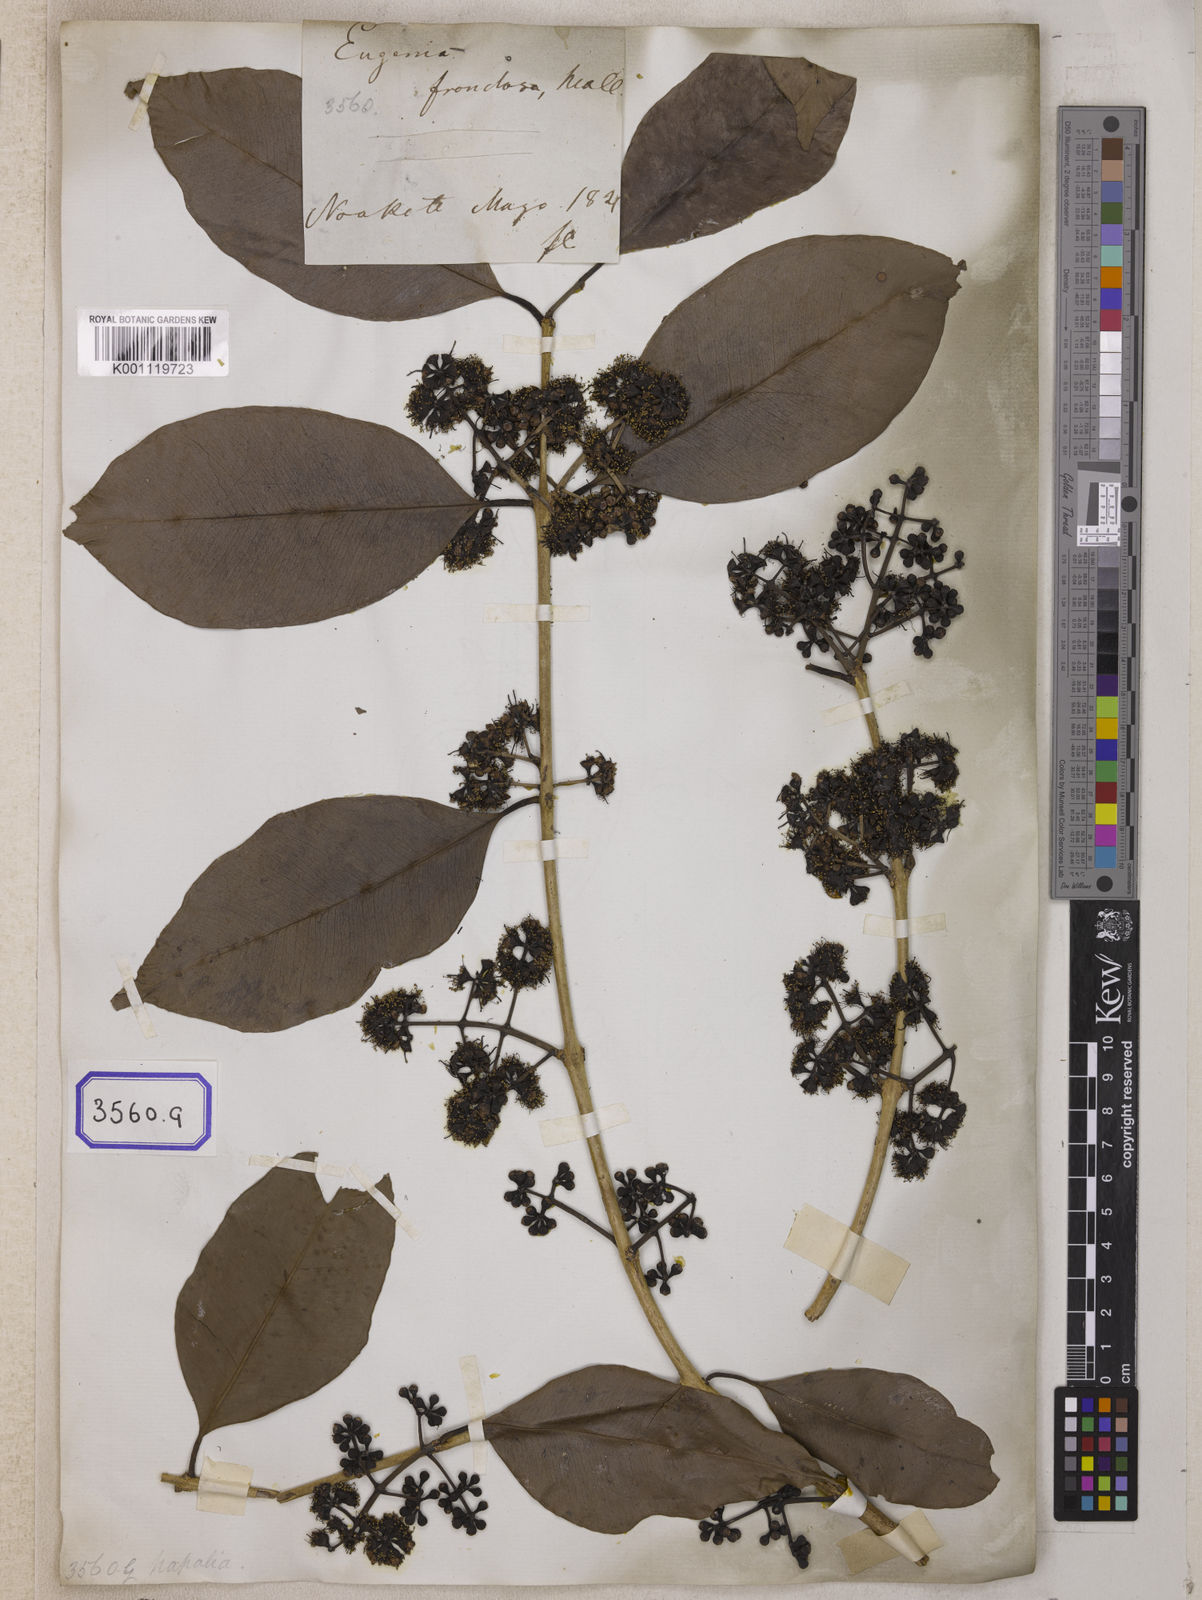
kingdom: Plantae
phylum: Tracheophyta
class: Magnoliopsida
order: Myrtales
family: Myrtaceae
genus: Syzygium
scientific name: Syzygium cumini
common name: Java plum
